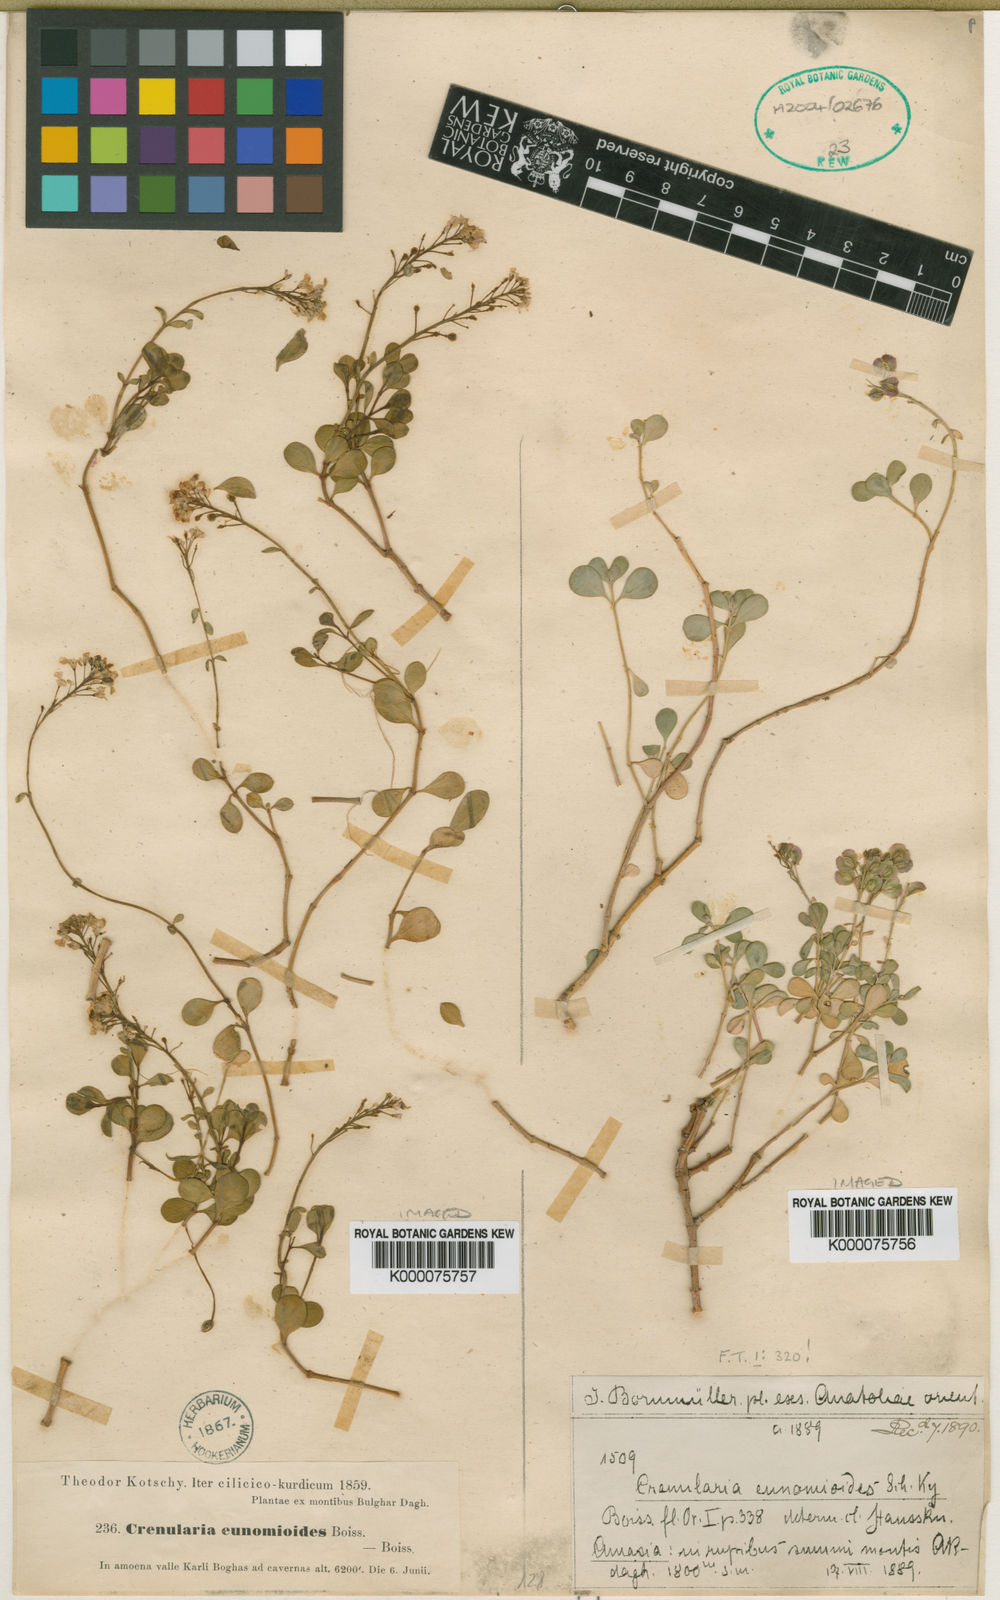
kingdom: Plantae
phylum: Tracheophyta
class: Magnoliopsida
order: Brassicales
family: Brassicaceae
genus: Aethionema
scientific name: Aethionema eunomioides
